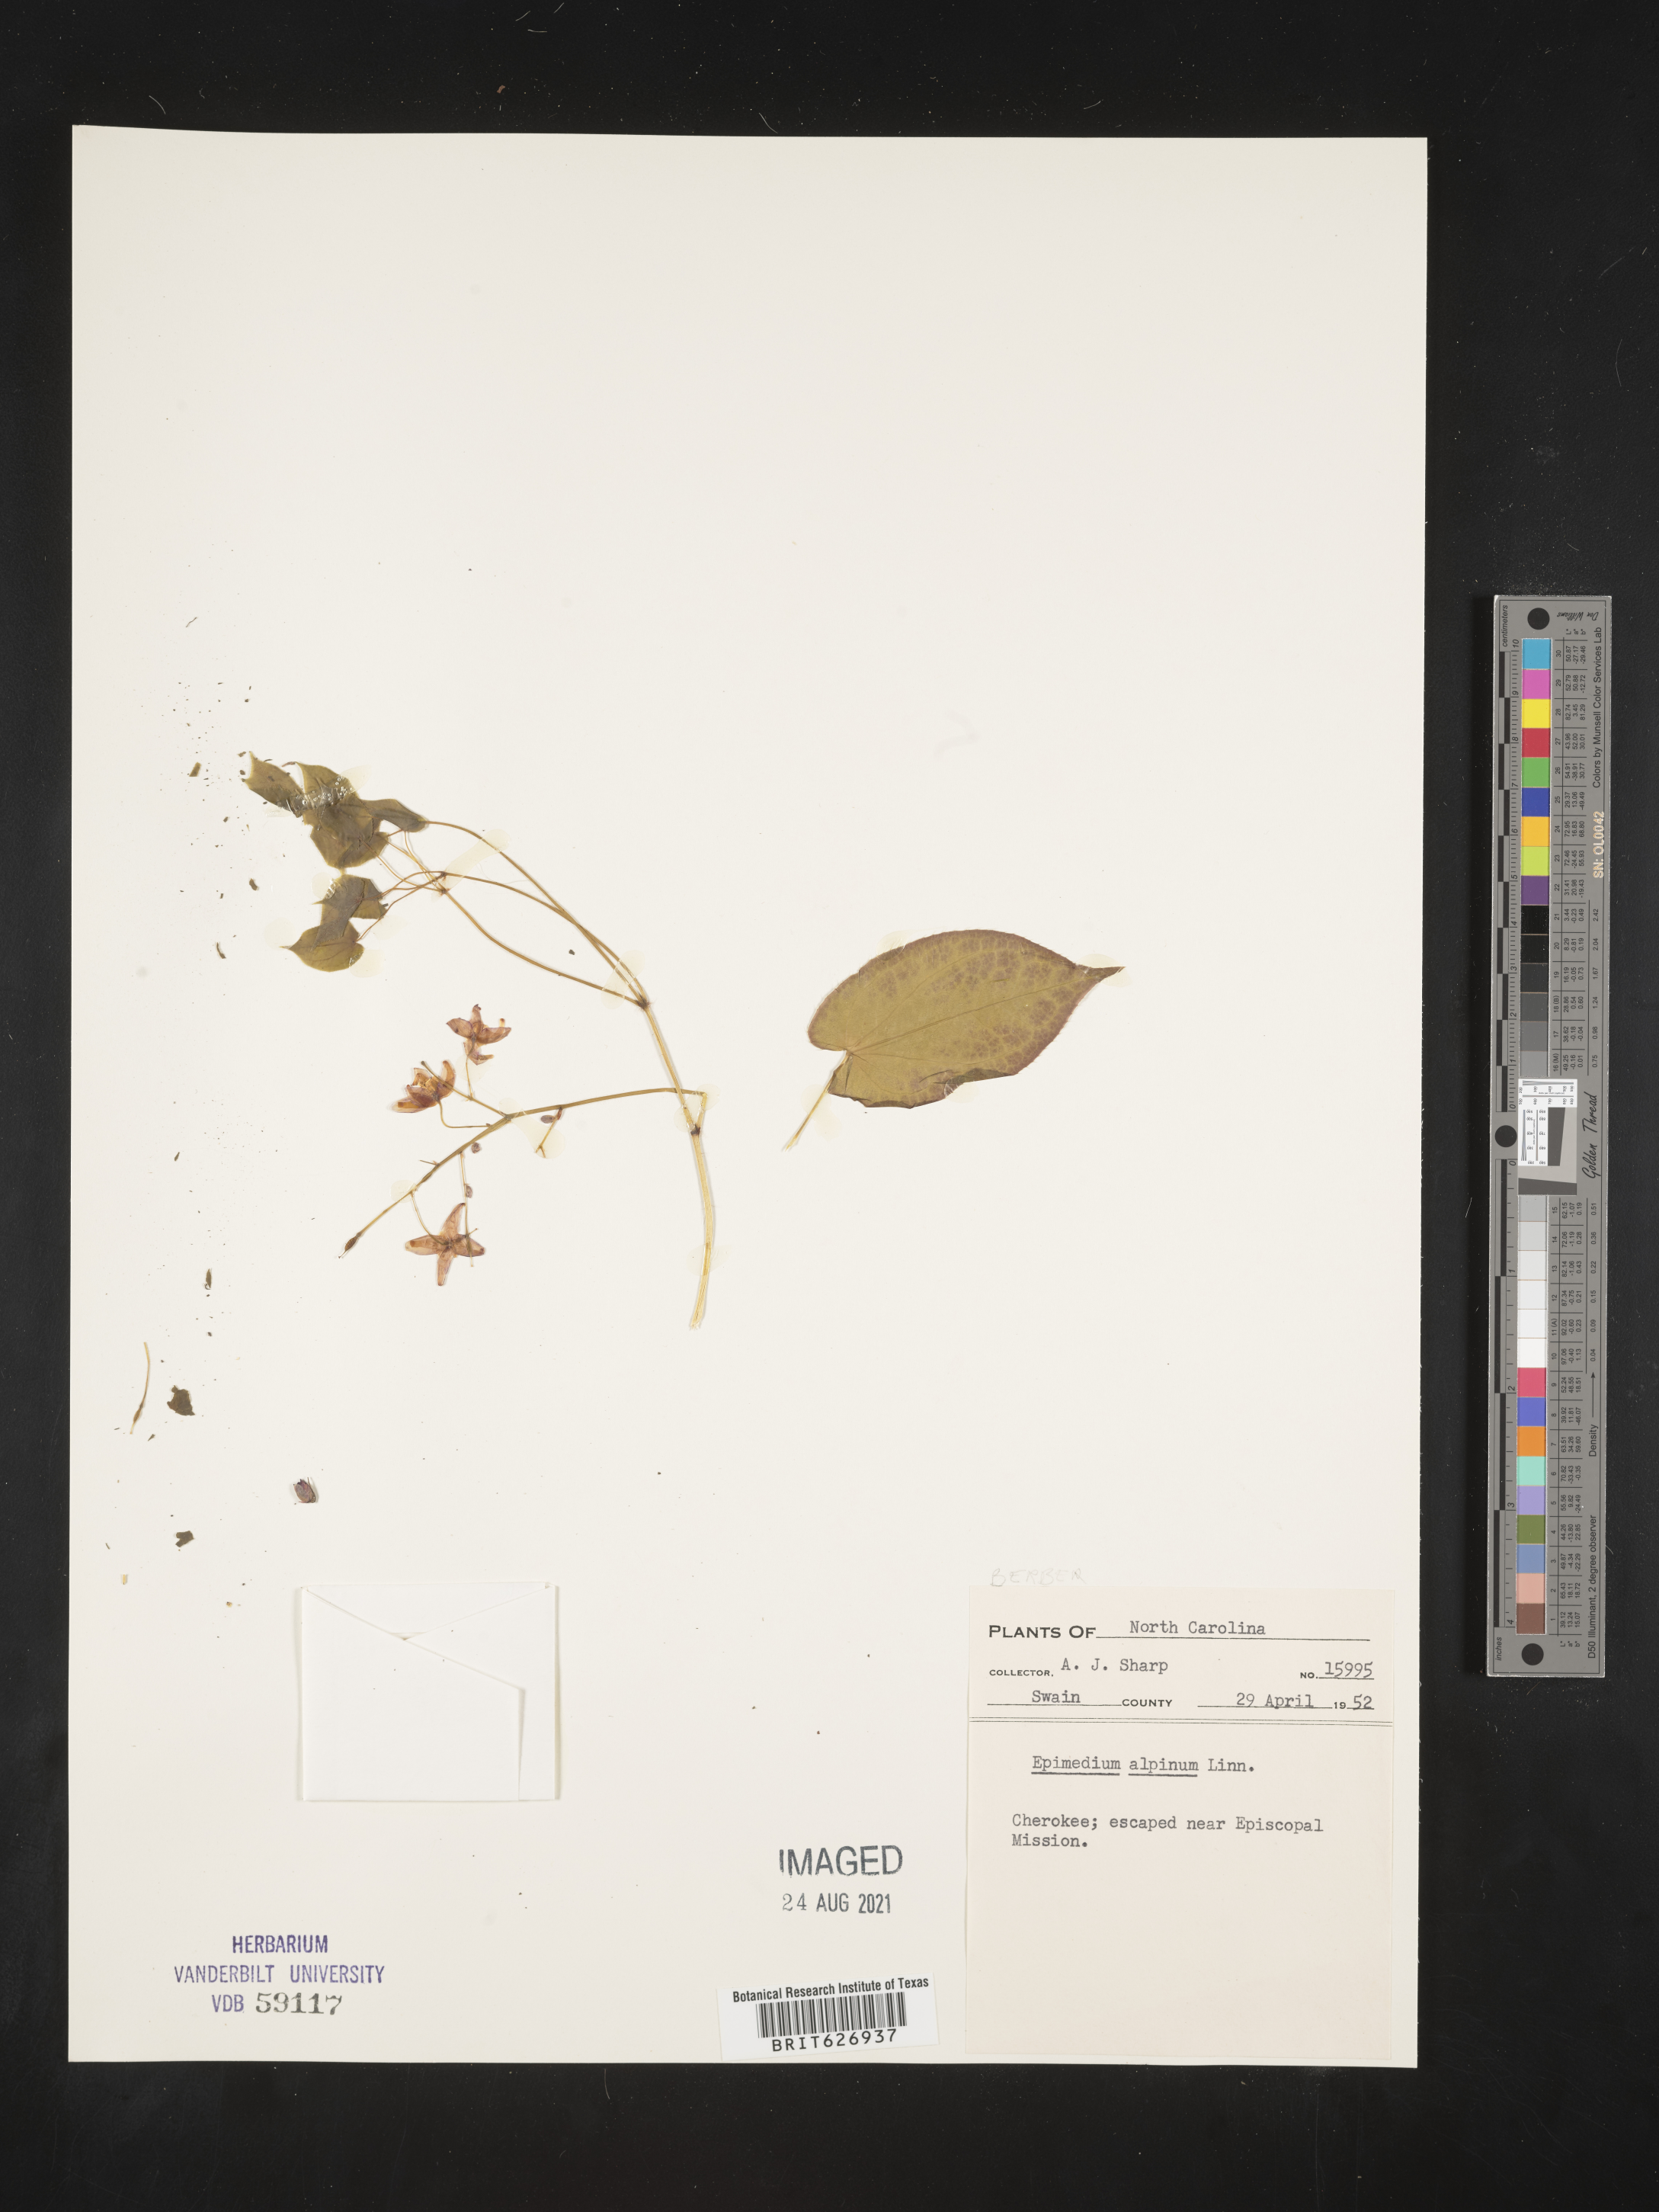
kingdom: Plantae
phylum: Tracheophyta
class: Magnoliopsida
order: Ranunculales
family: Berberidaceae
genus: Epimedium
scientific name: Epimedium alpinum
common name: Barrenwort
